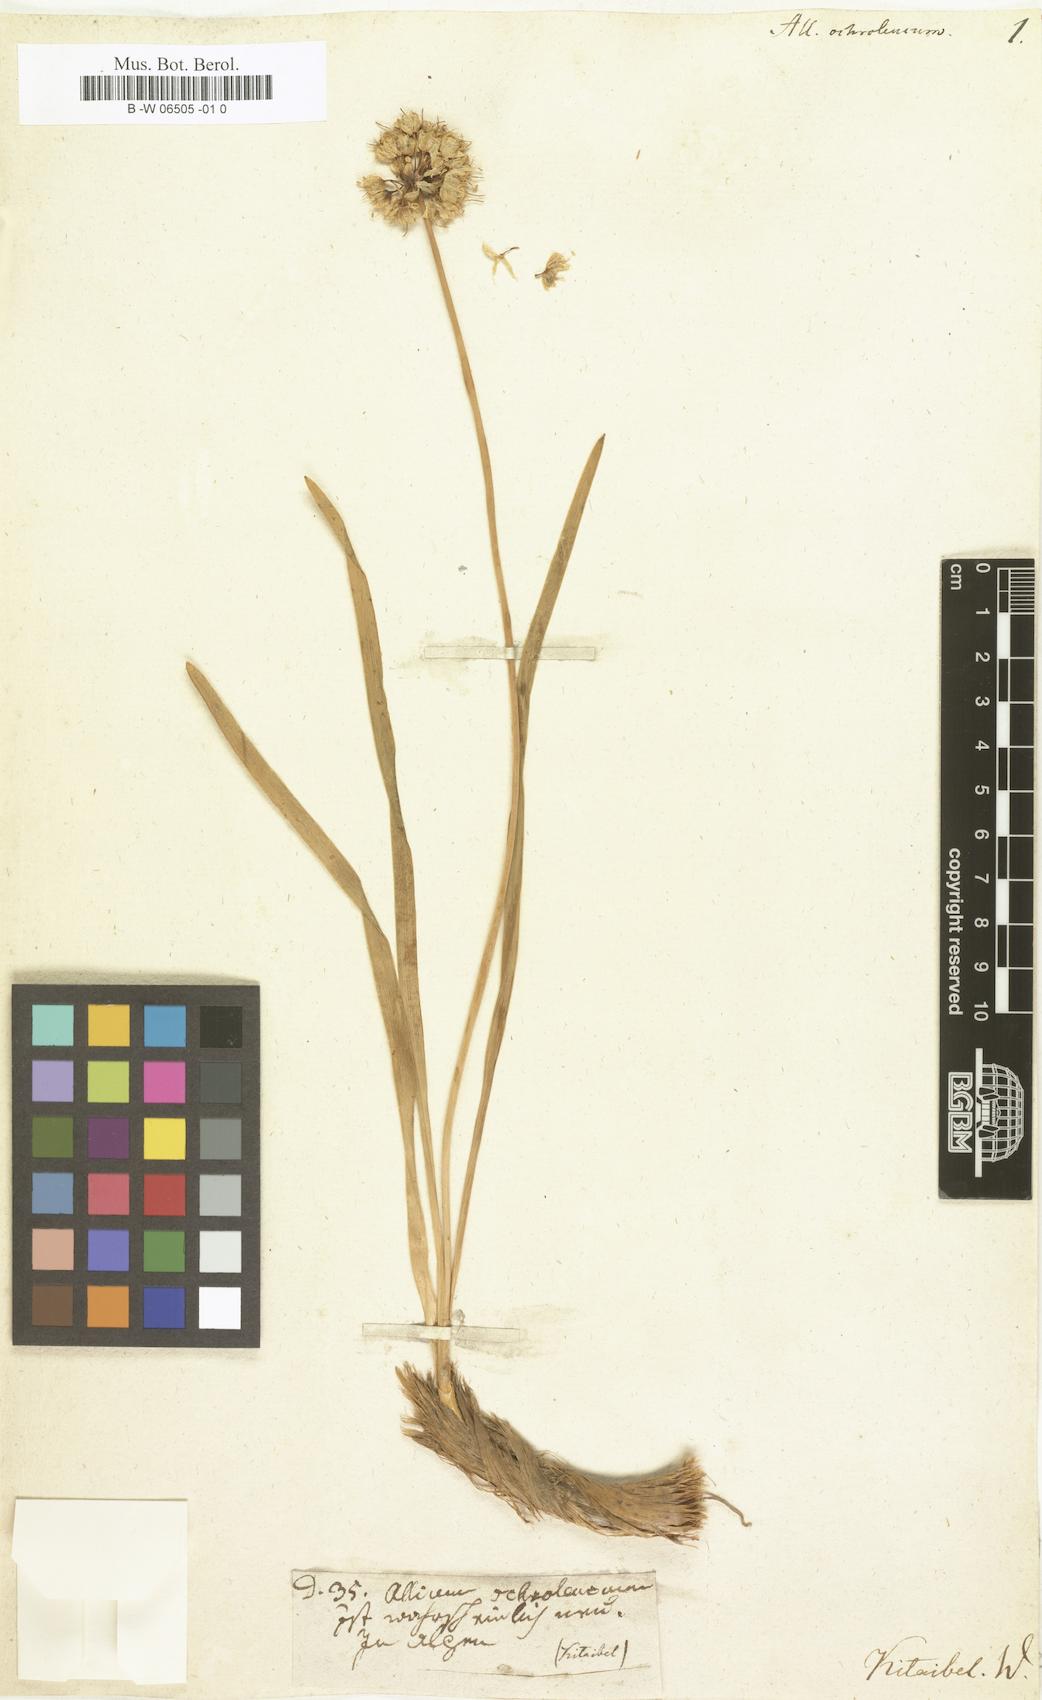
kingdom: Plantae
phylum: Tracheophyta
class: Liliopsida
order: Asparagales
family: Amaryllidaceae
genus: Allium
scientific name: Allium
